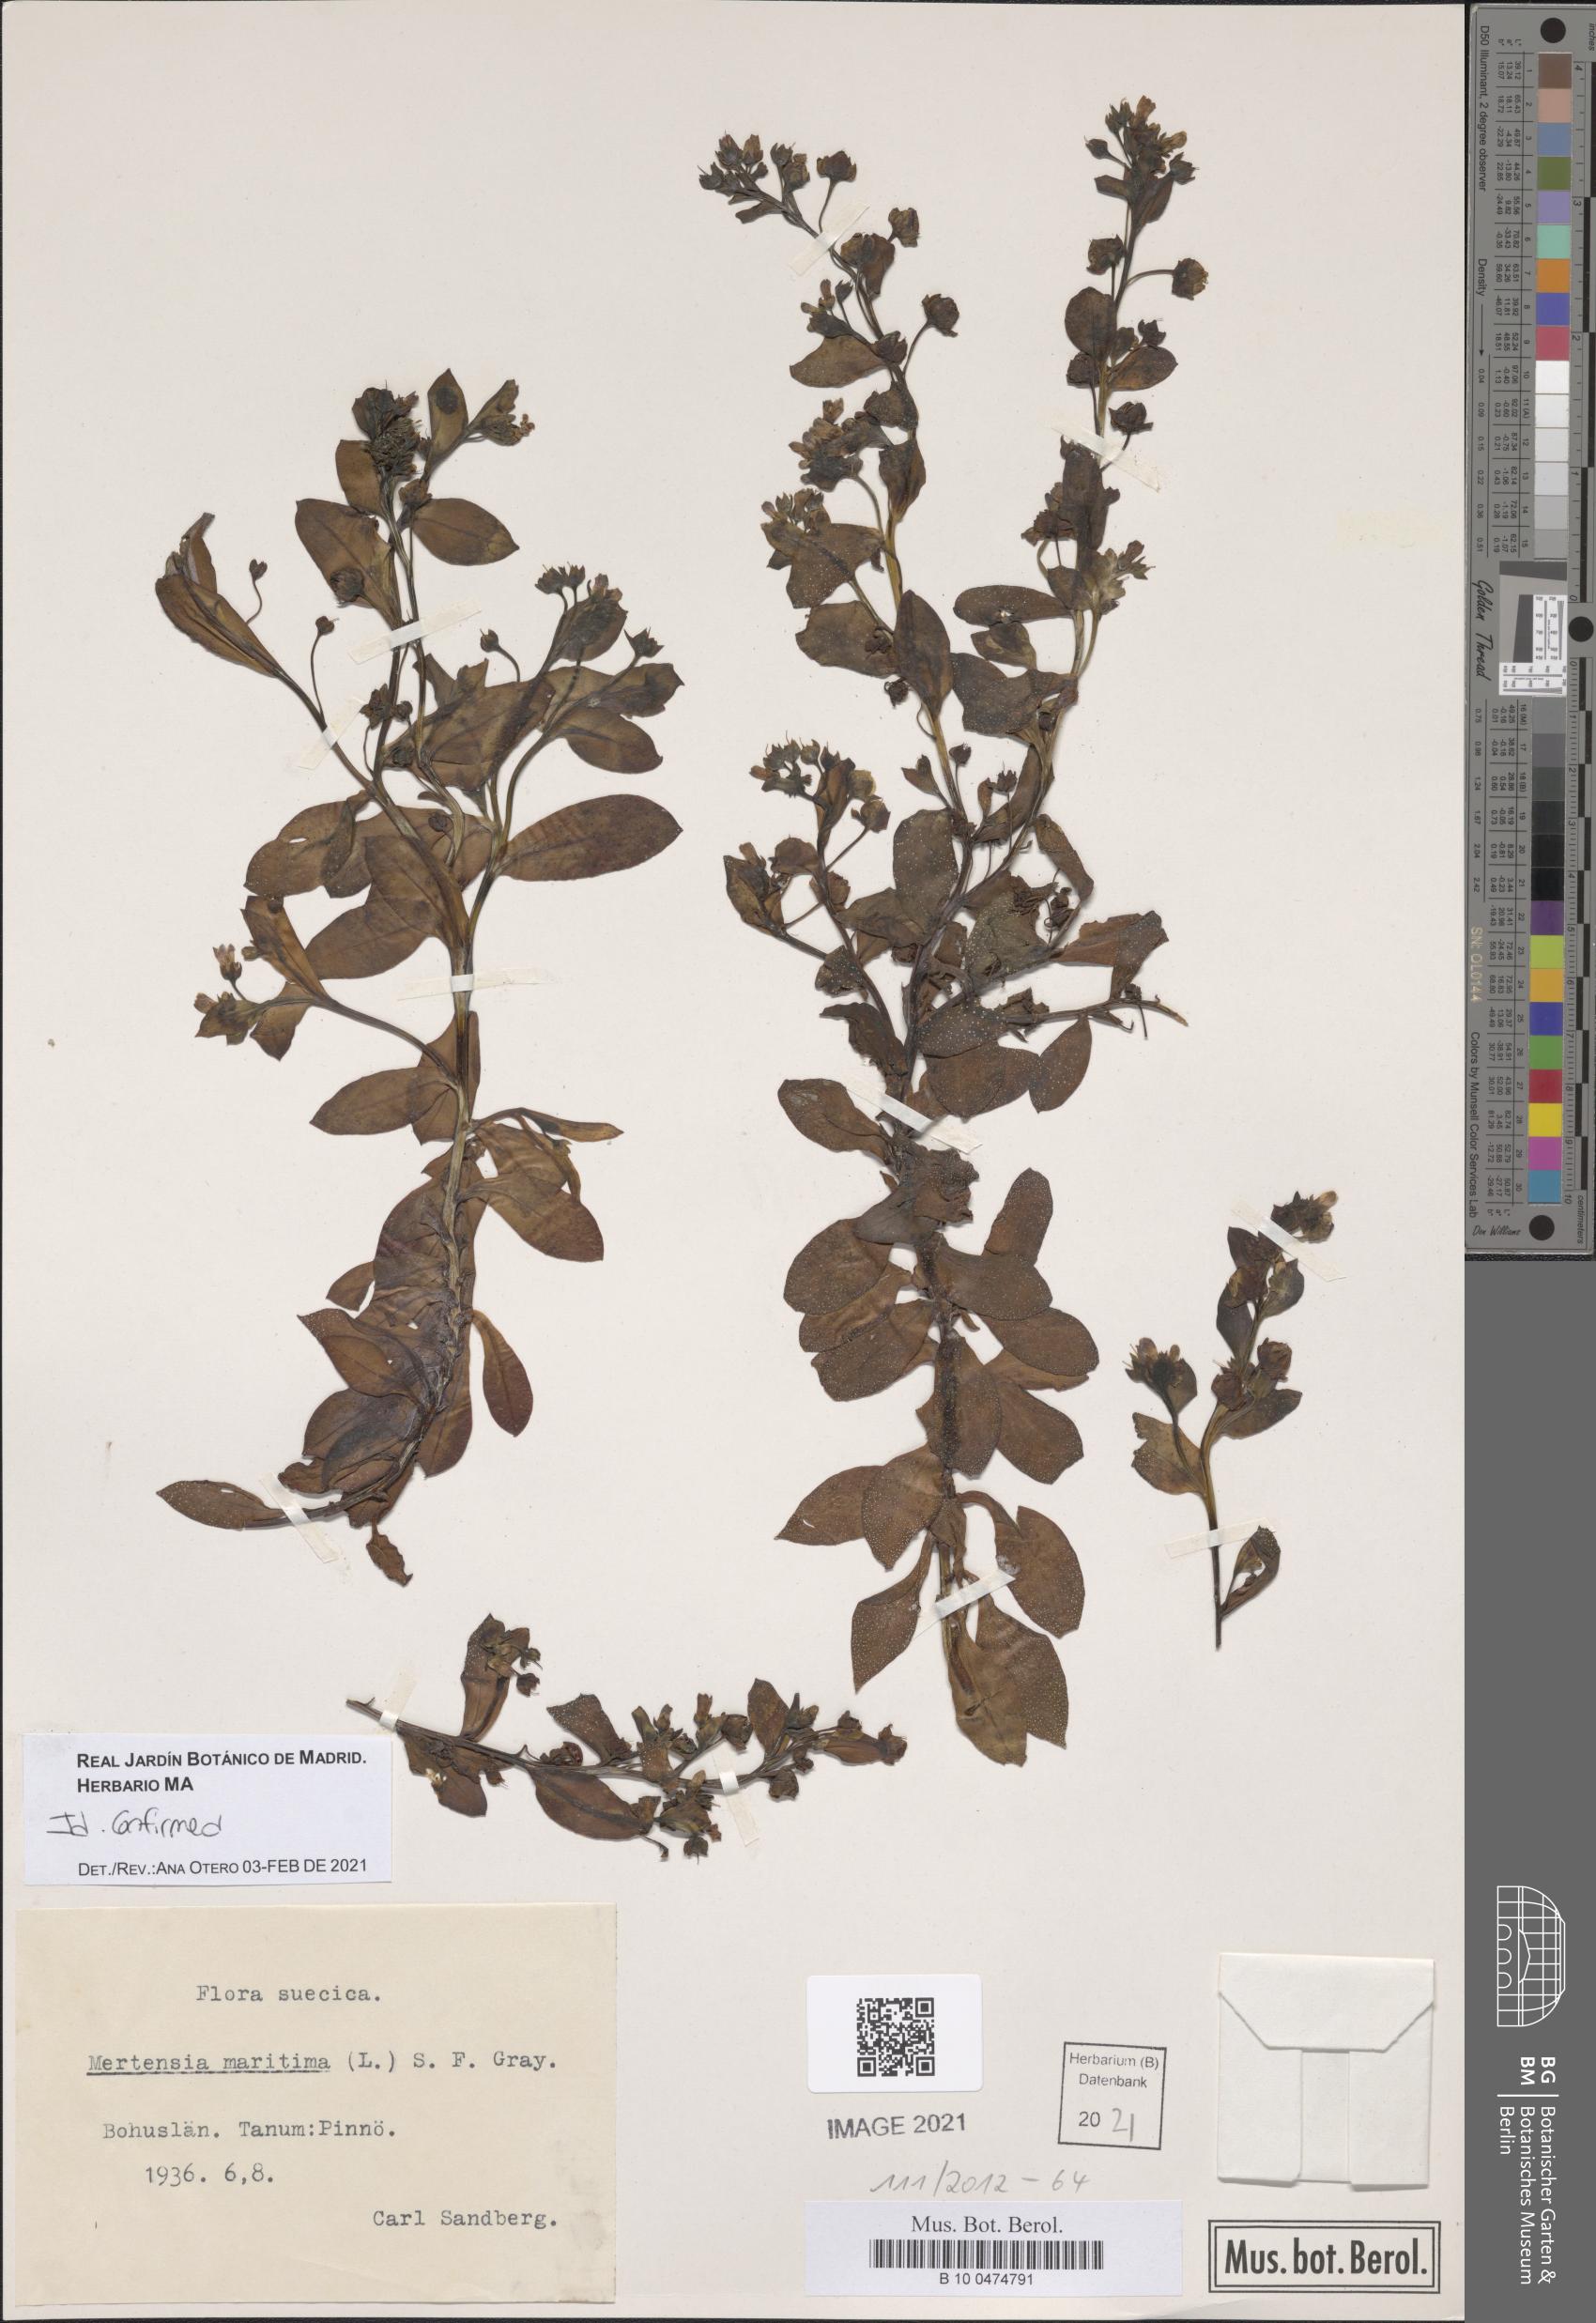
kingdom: Plantae
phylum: Tracheophyta
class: Magnoliopsida
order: Boraginales
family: Boraginaceae
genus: Mertensia
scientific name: Mertensia maritima
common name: Oysterplant
